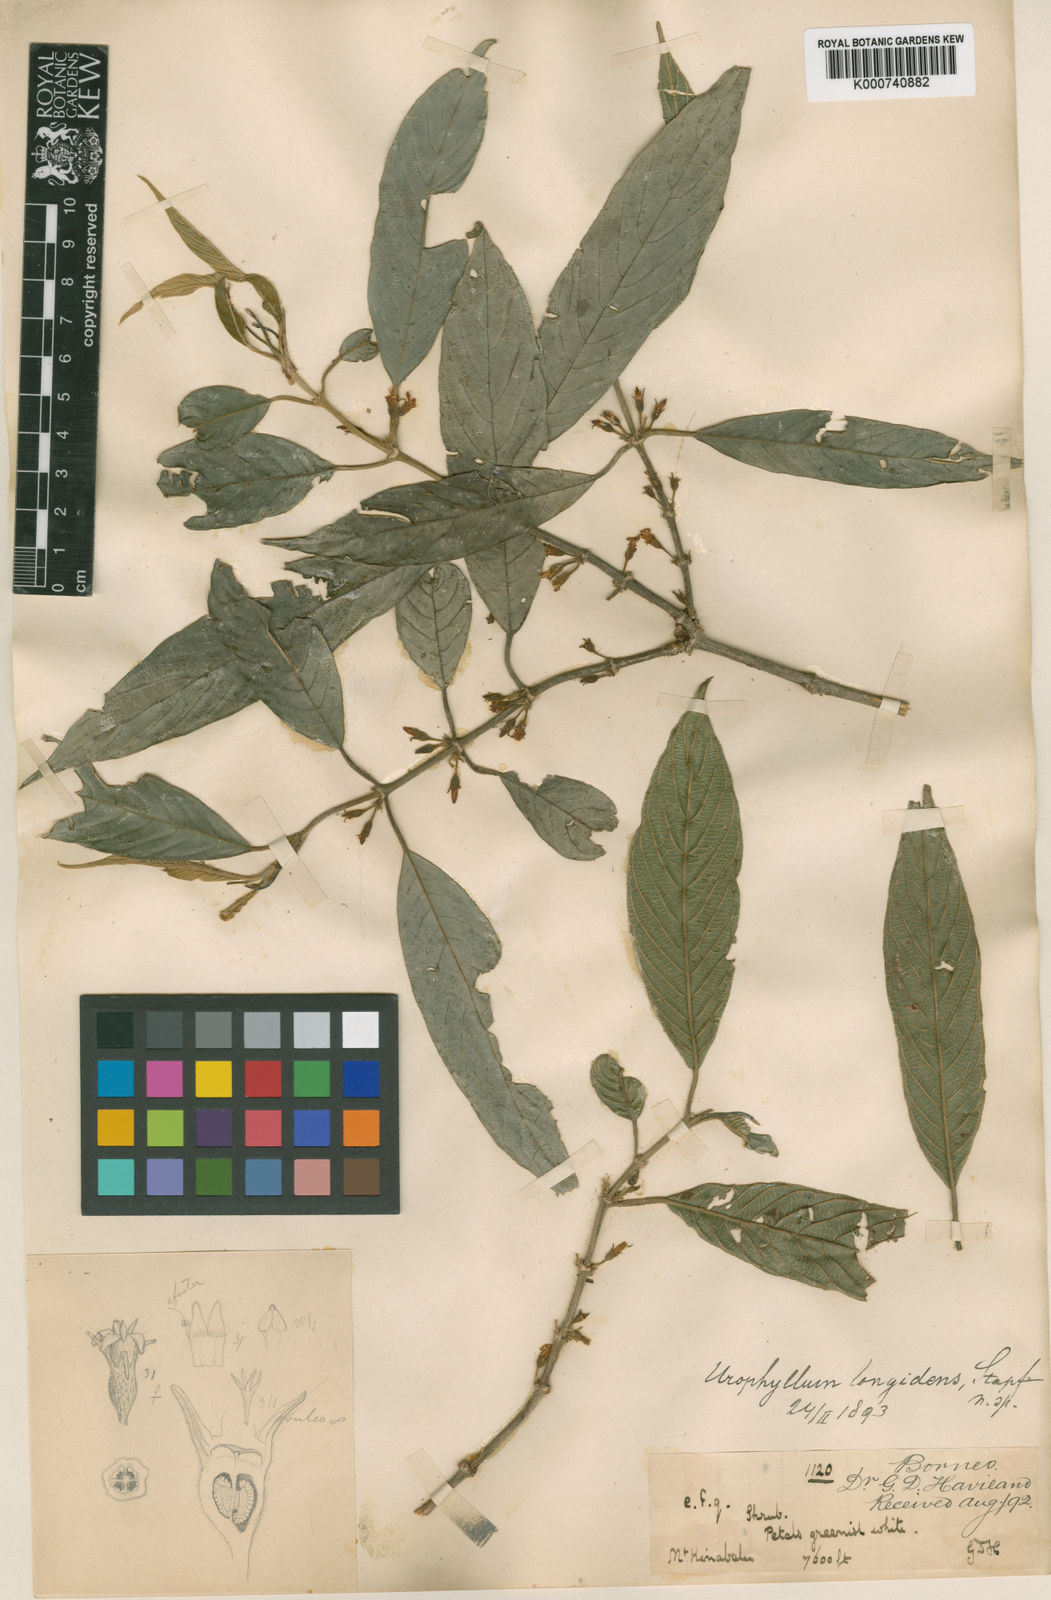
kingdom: Plantae
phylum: Tracheophyta
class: Magnoliopsida
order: Gentianales
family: Rubiaceae
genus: Urophyllum
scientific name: Urophyllum longidens
